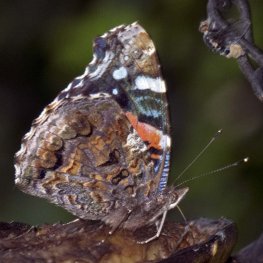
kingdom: Animalia
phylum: Arthropoda
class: Insecta
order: Lepidoptera
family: Nymphalidae
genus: Vanessa
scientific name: Vanessa atalanta
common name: Red Admiral
